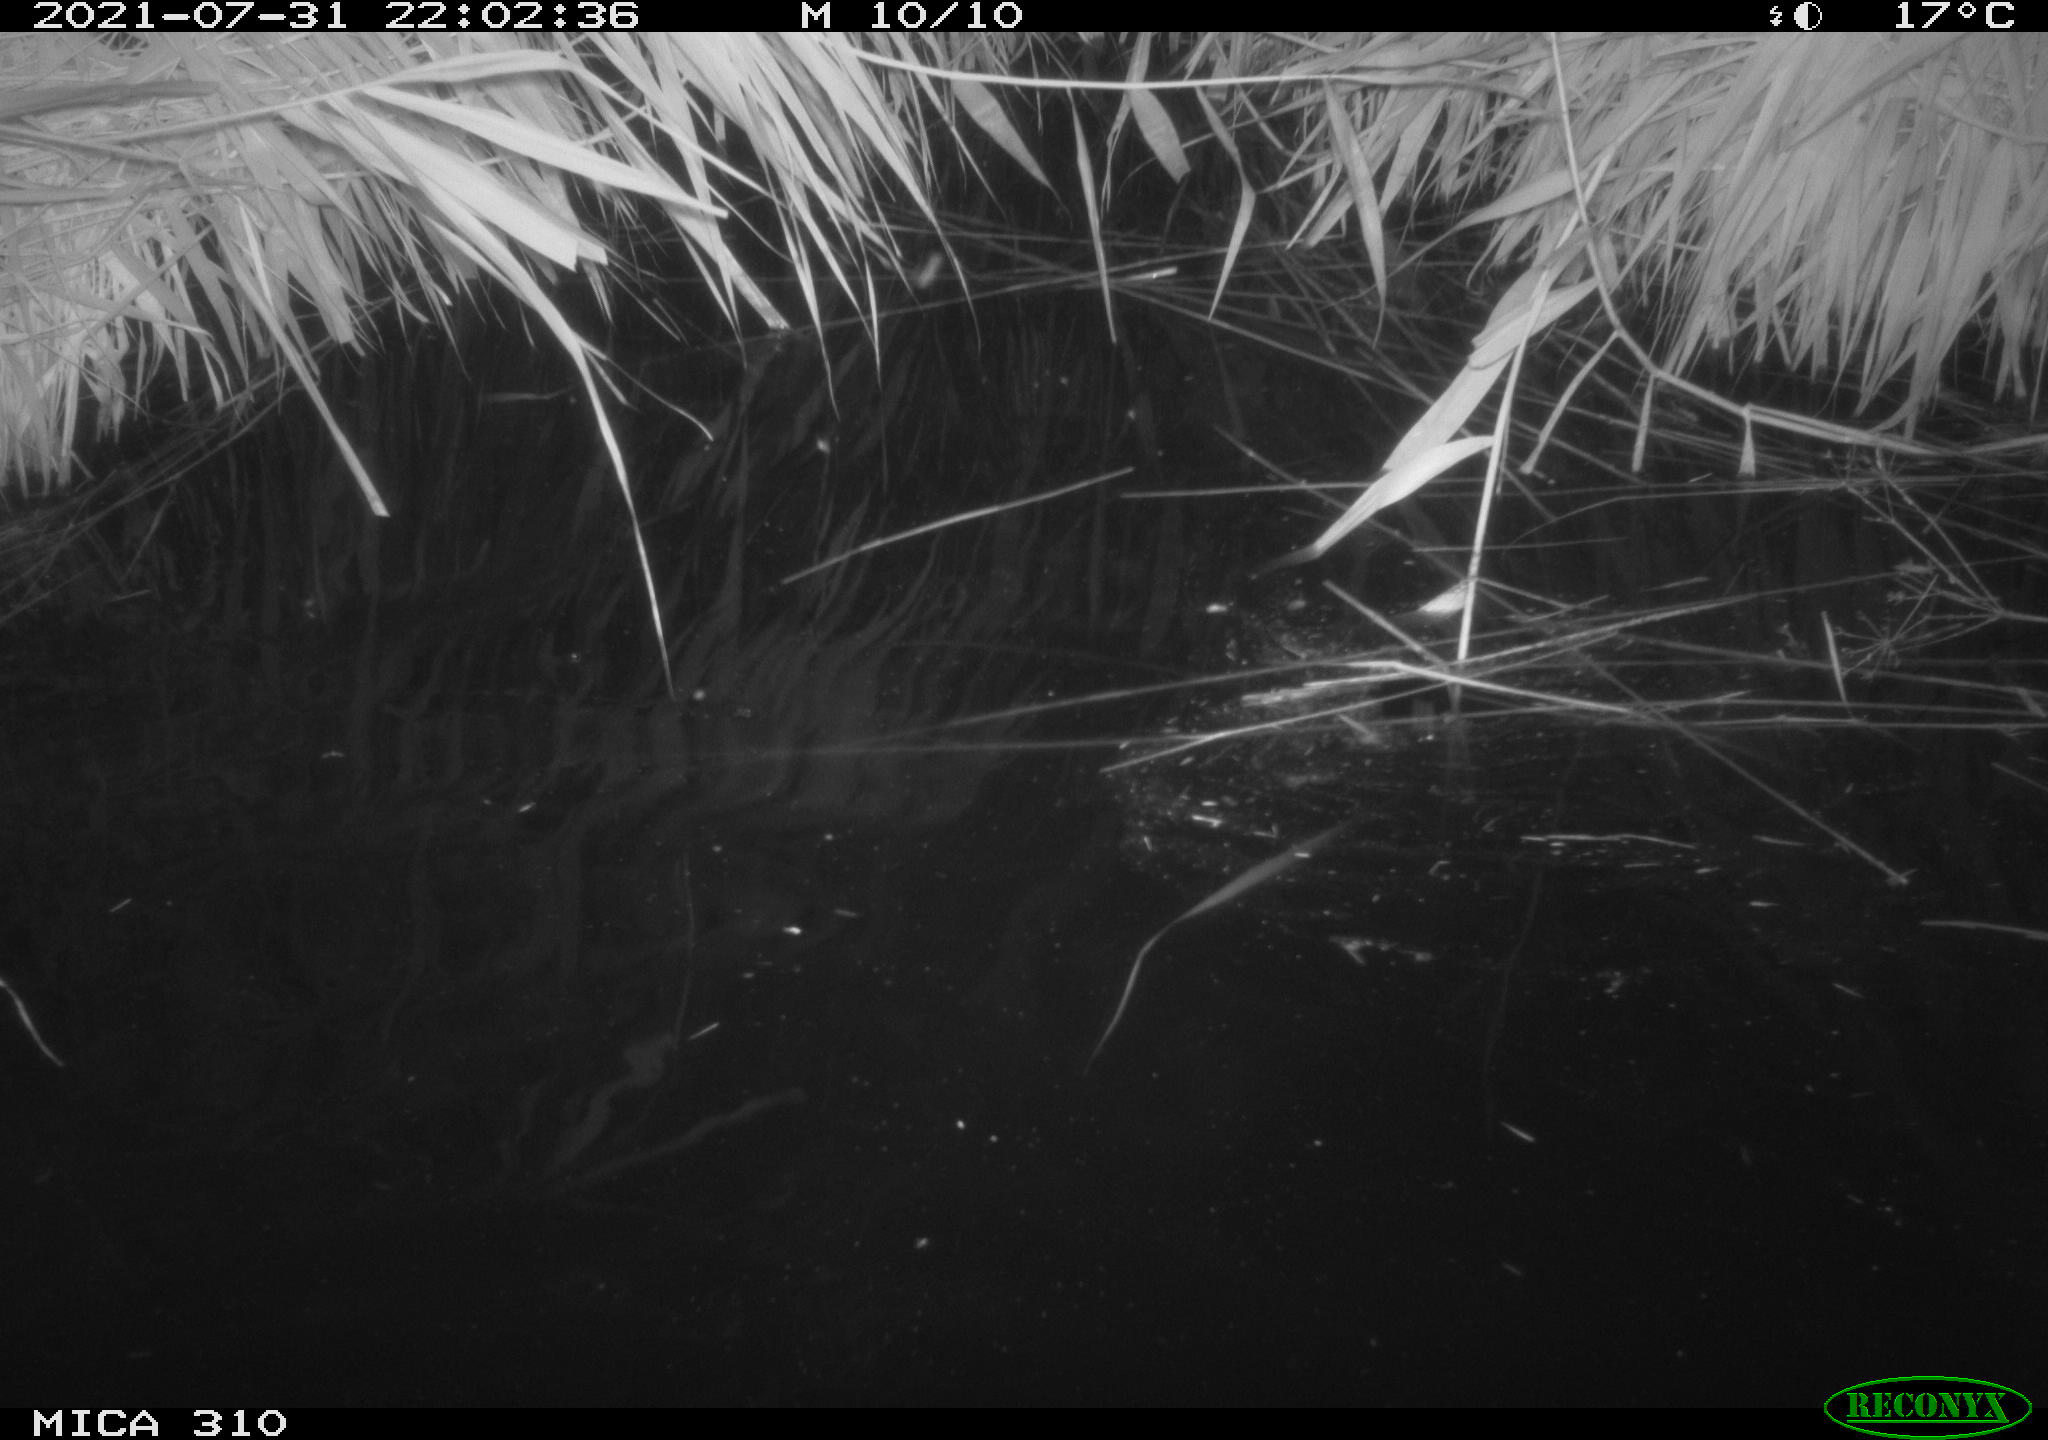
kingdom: Animalia
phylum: Chordata
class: Aves
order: Anseriformes
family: Anatidae
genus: Anas
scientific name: Anas platyrhynchos
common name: Mallard
